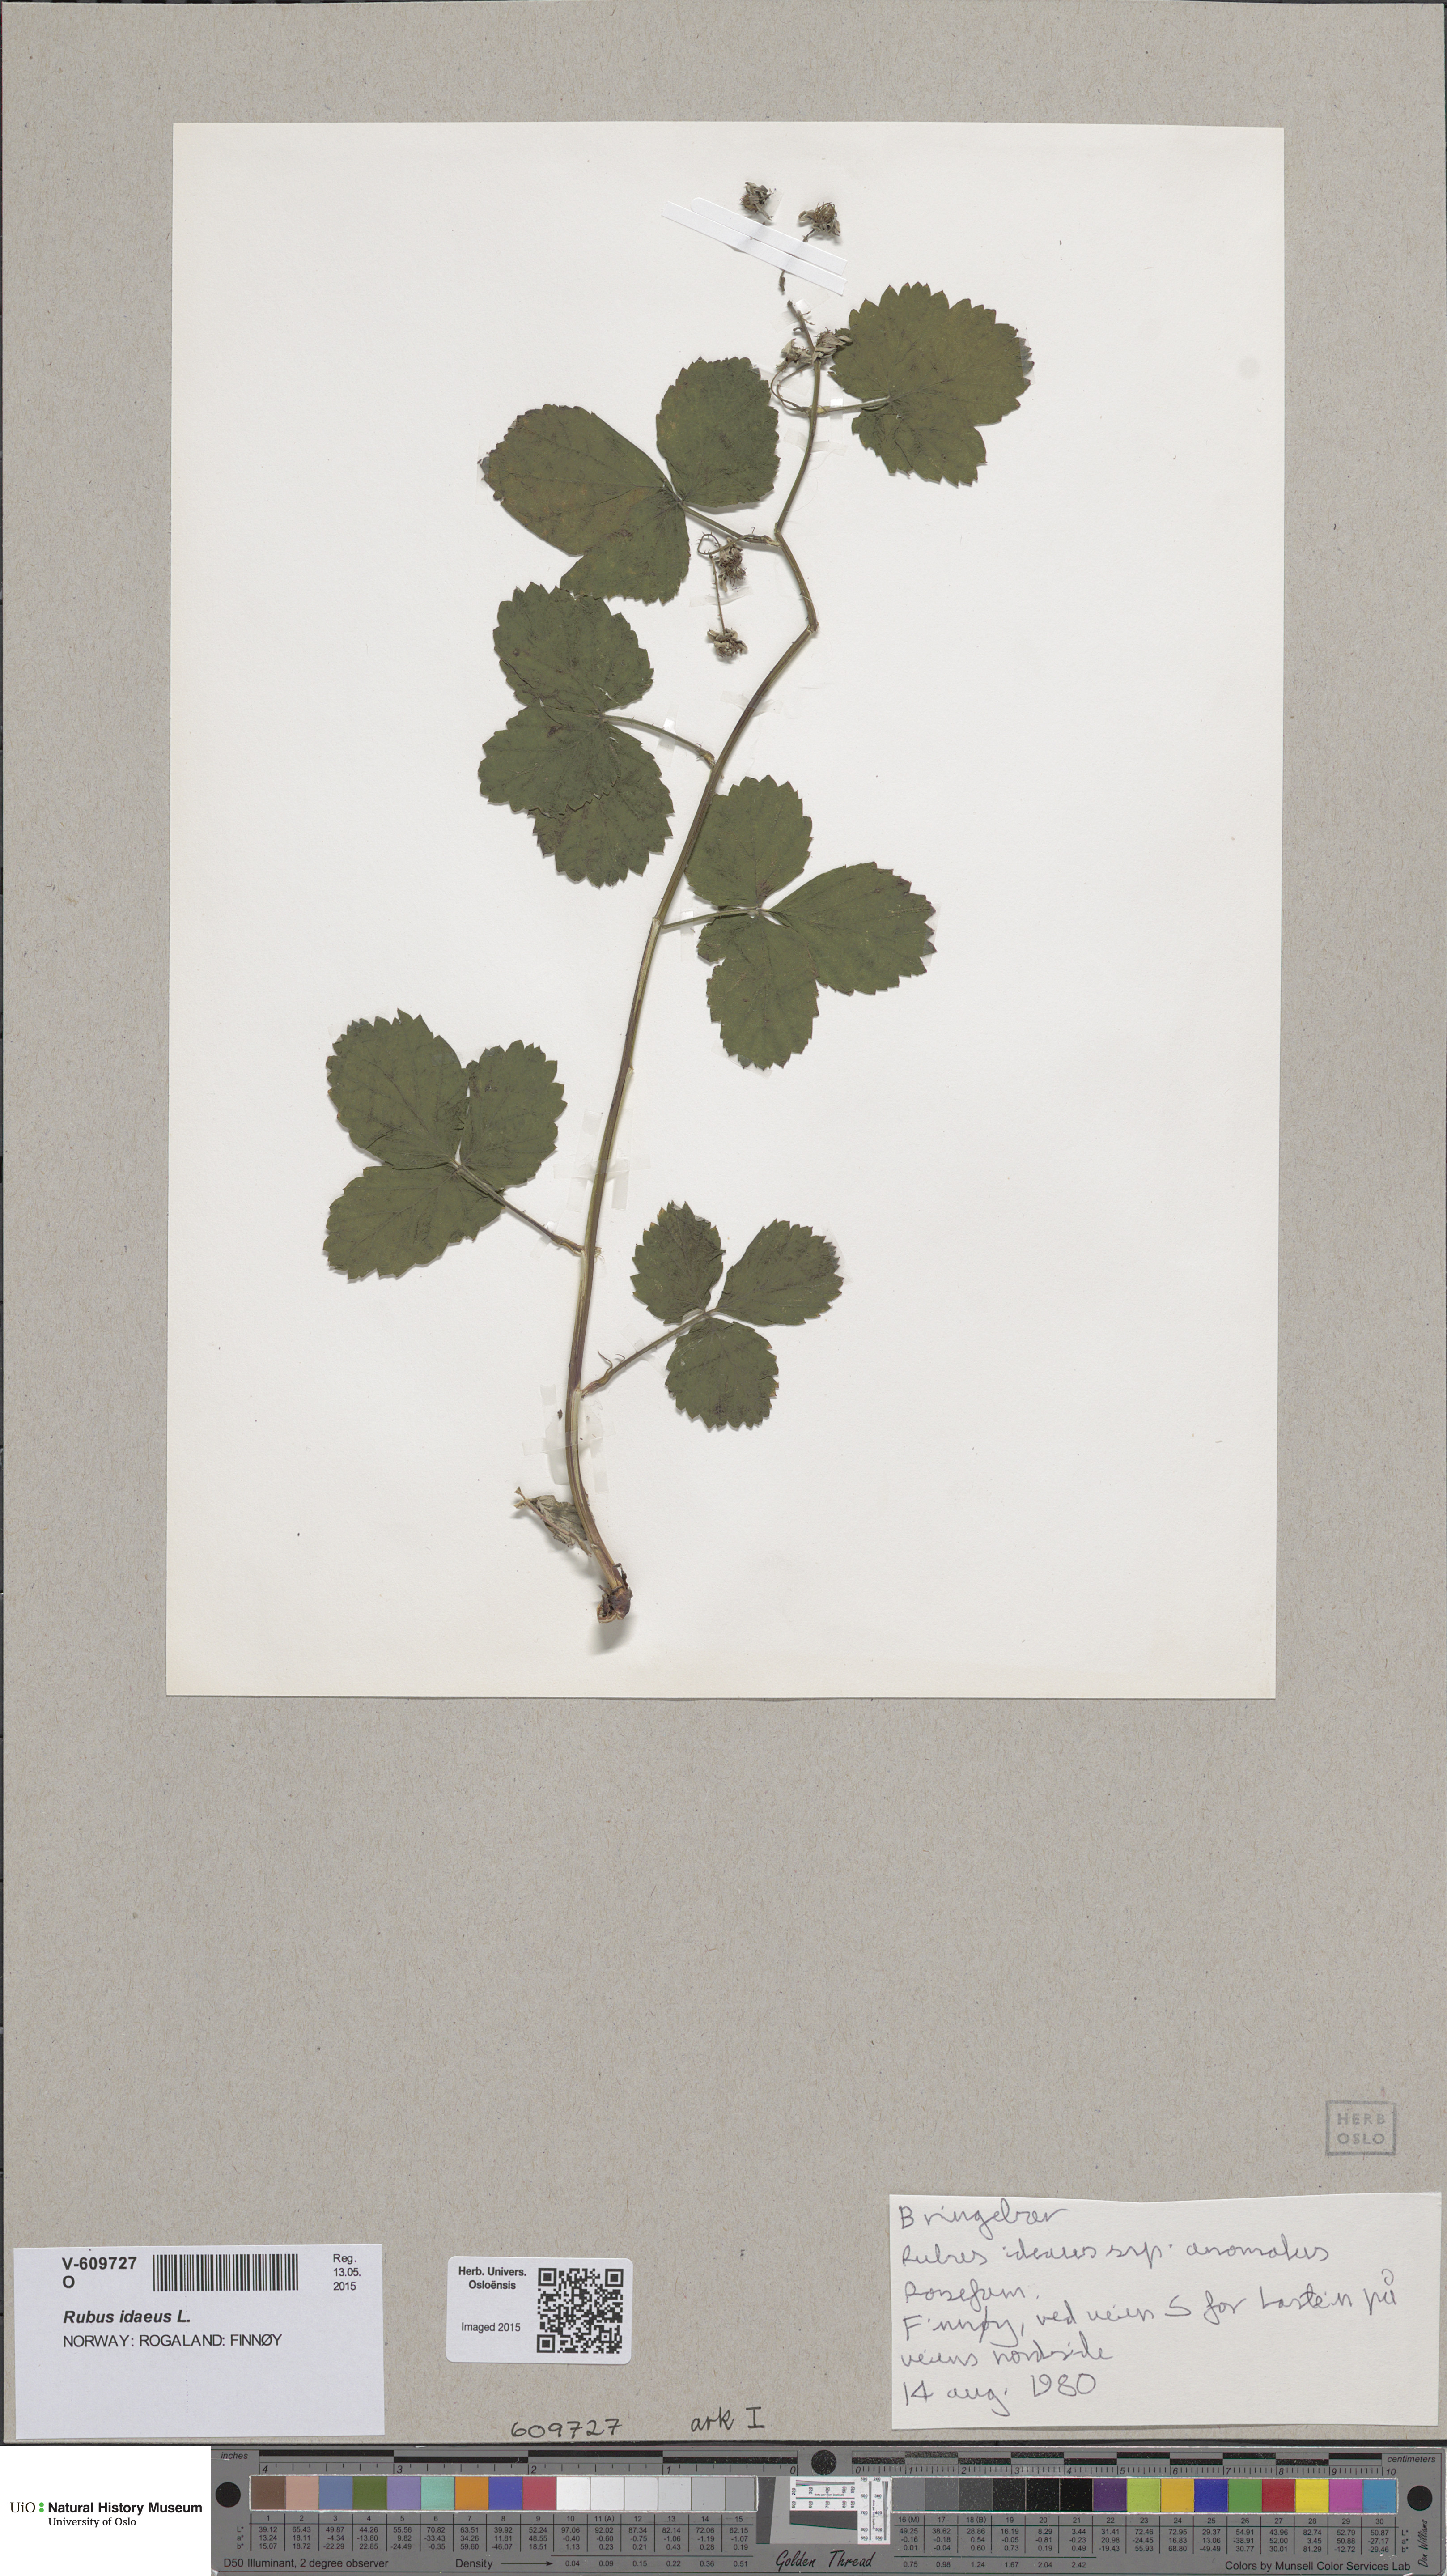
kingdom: Plantae
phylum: Tracheophyta
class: Magnoliopsida
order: Rosales
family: Rosaceae
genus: Rubus
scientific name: Rubus idaeus
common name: Raspberry
